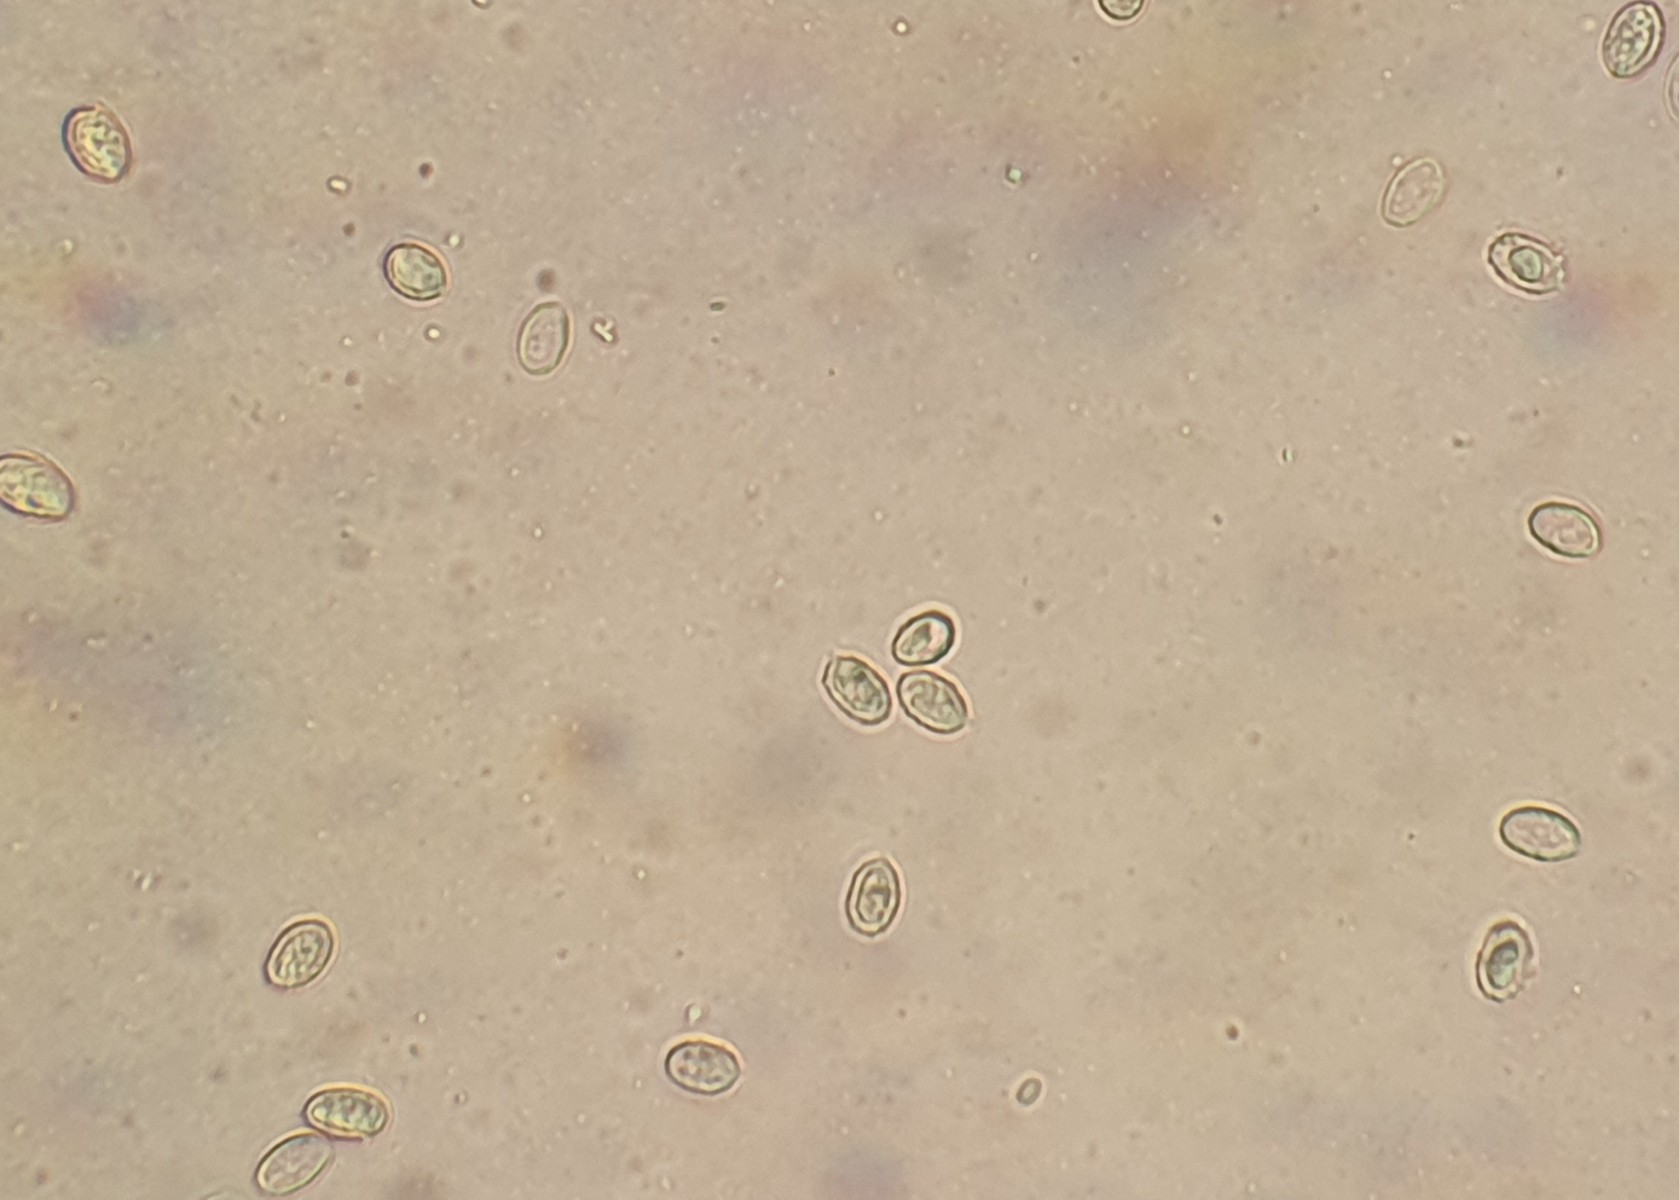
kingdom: Fungi
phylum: Basidiomycota
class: Agaricomycetes
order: Agaricales
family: Tricholomataceae
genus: Melanoleuca
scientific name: Melanoleuca
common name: munkehat
